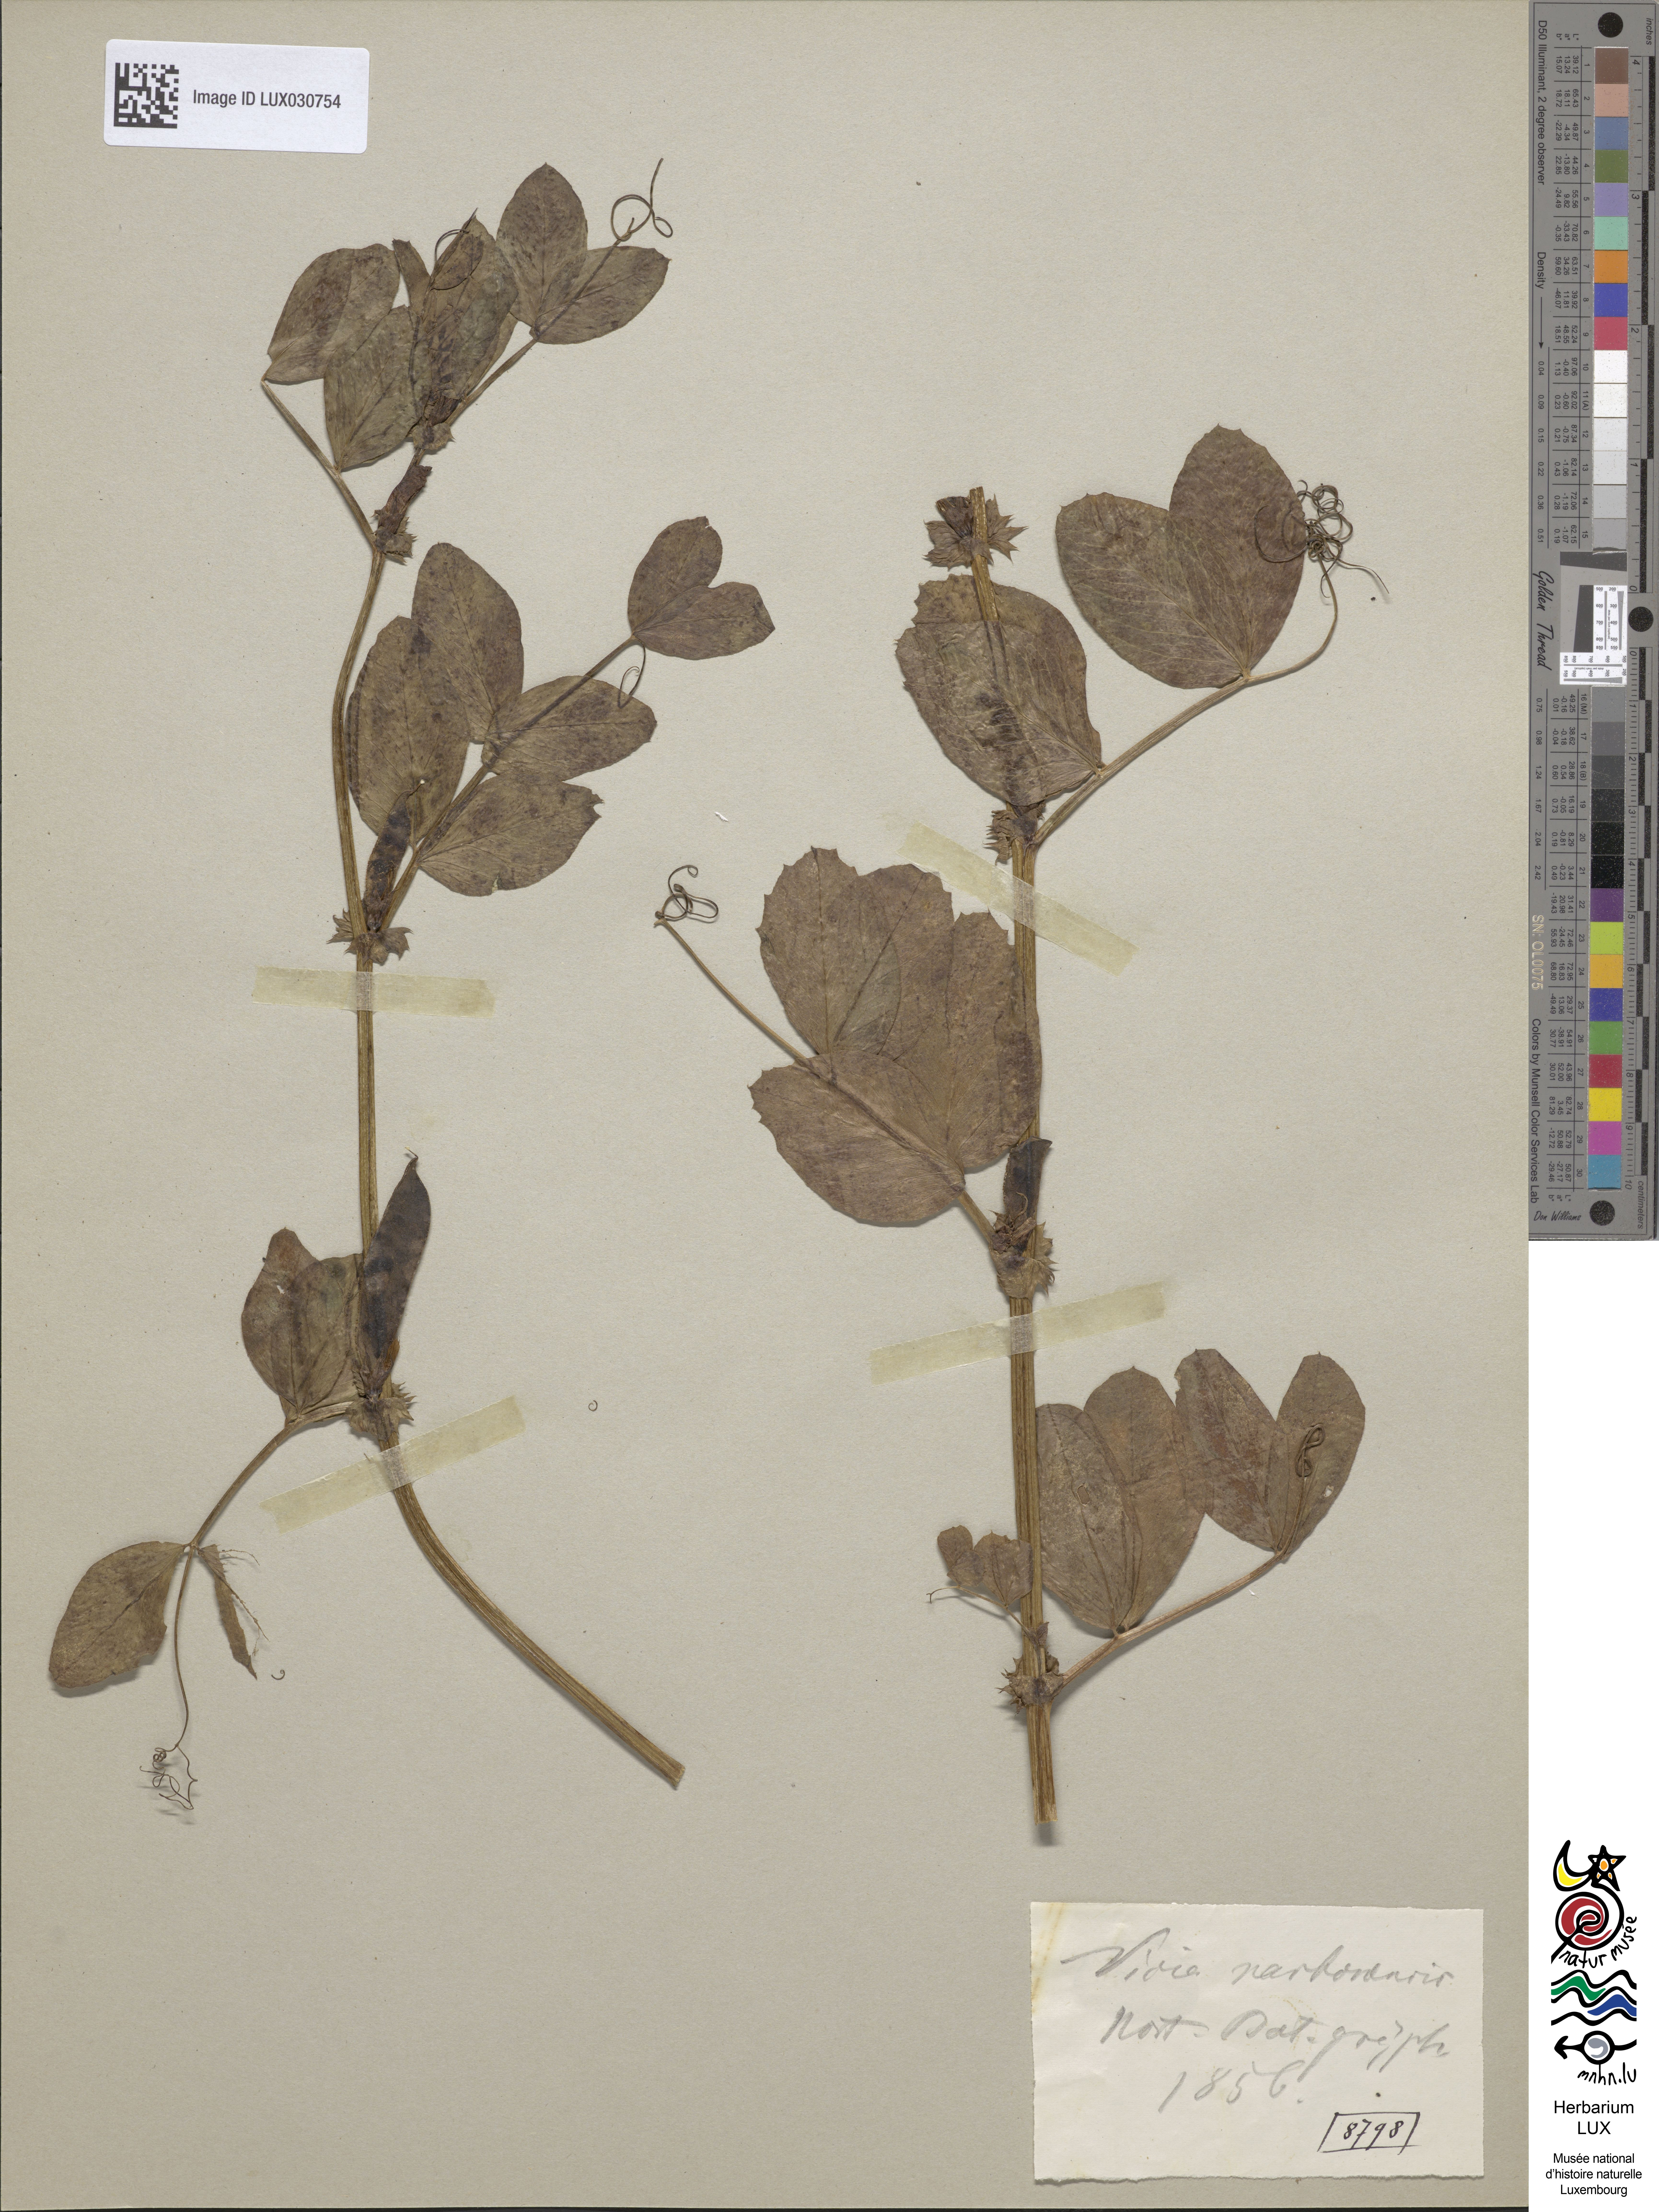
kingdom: Plantae
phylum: Tracheophyta
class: Magnoliopsida
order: Fabales
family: Fabaceae
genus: Vicia
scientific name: Vicia narbonensis
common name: Narbonne vetch
